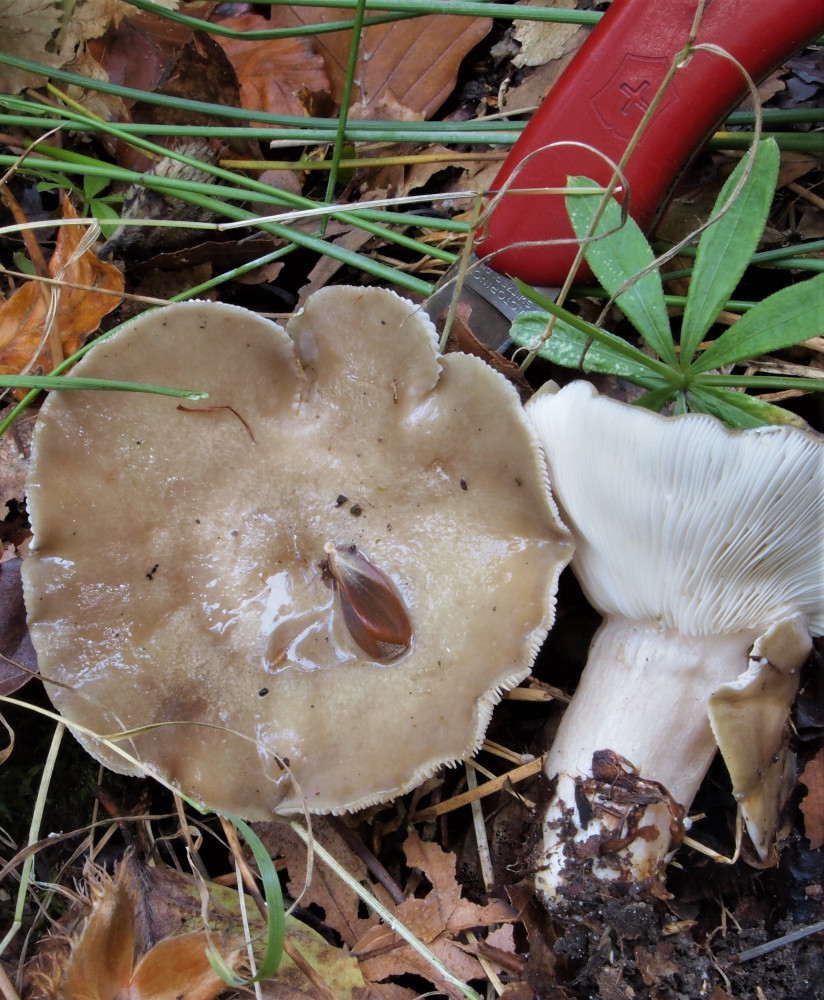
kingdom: Fungi
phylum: Basidiomycota
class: Agaricomycetes
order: Russulales
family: Russulaceae
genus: Lactarius
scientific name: Lactarius fluens
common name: lysrandet mælkehat
